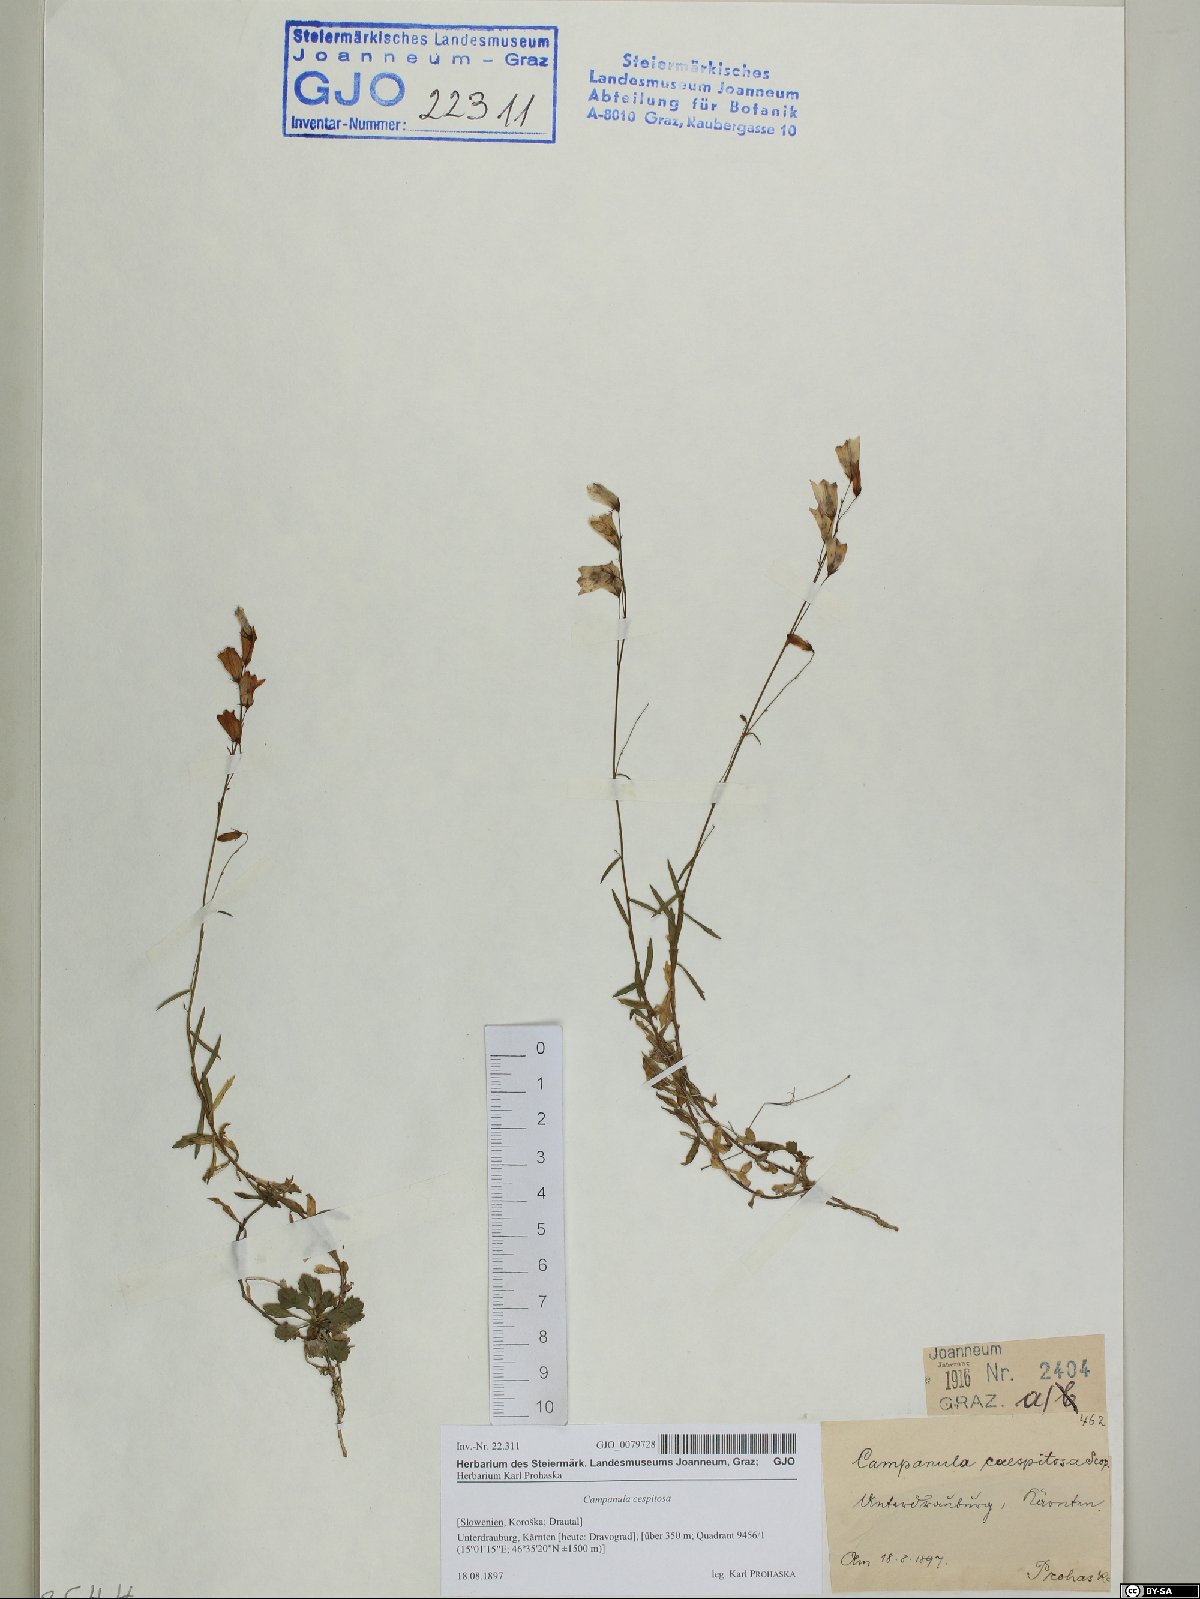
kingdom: Plantae
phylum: Tracheophyta
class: Magnoliopsida
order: Asterales
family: Campanulaceae
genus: Campanula
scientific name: Campanula cespitosa
